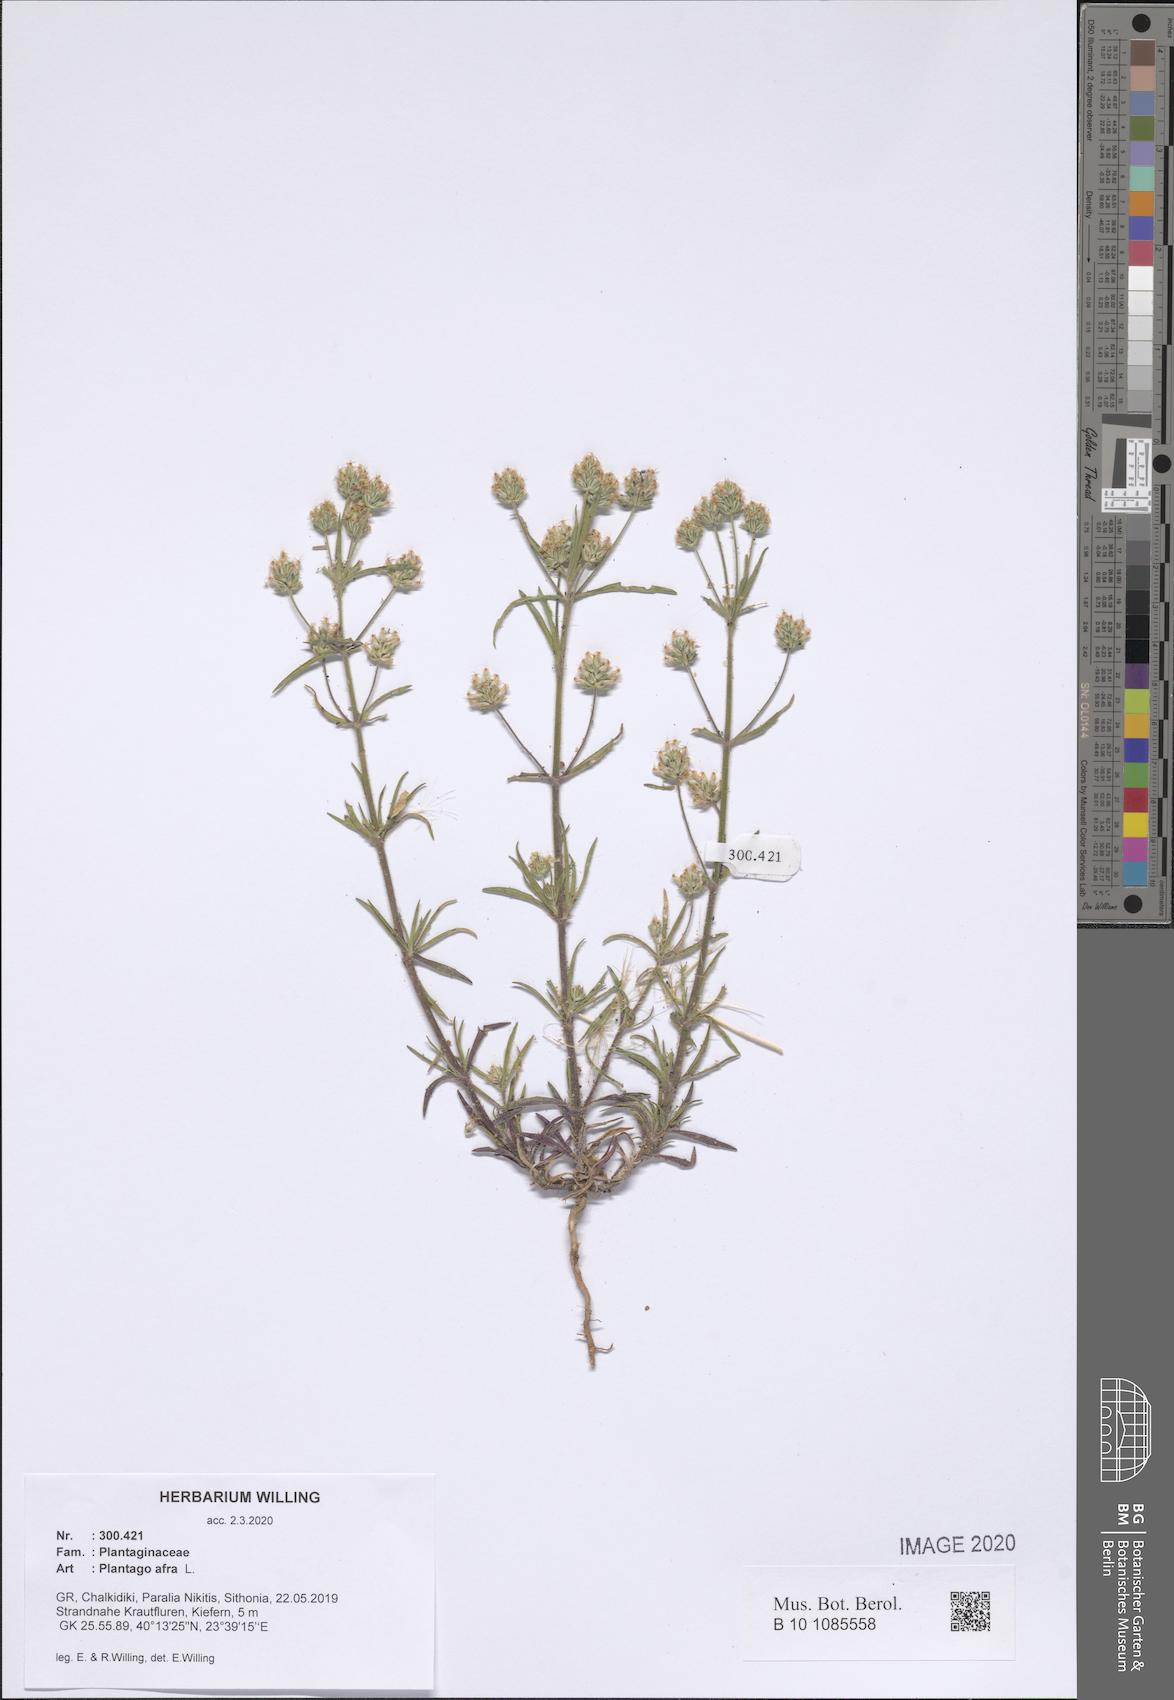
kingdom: Plantae
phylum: Tracheophyta
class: Magnoliopsida
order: Lamiales
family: Plantaginaceae
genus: Plantago
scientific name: Plantago afra
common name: Glandular plantain
